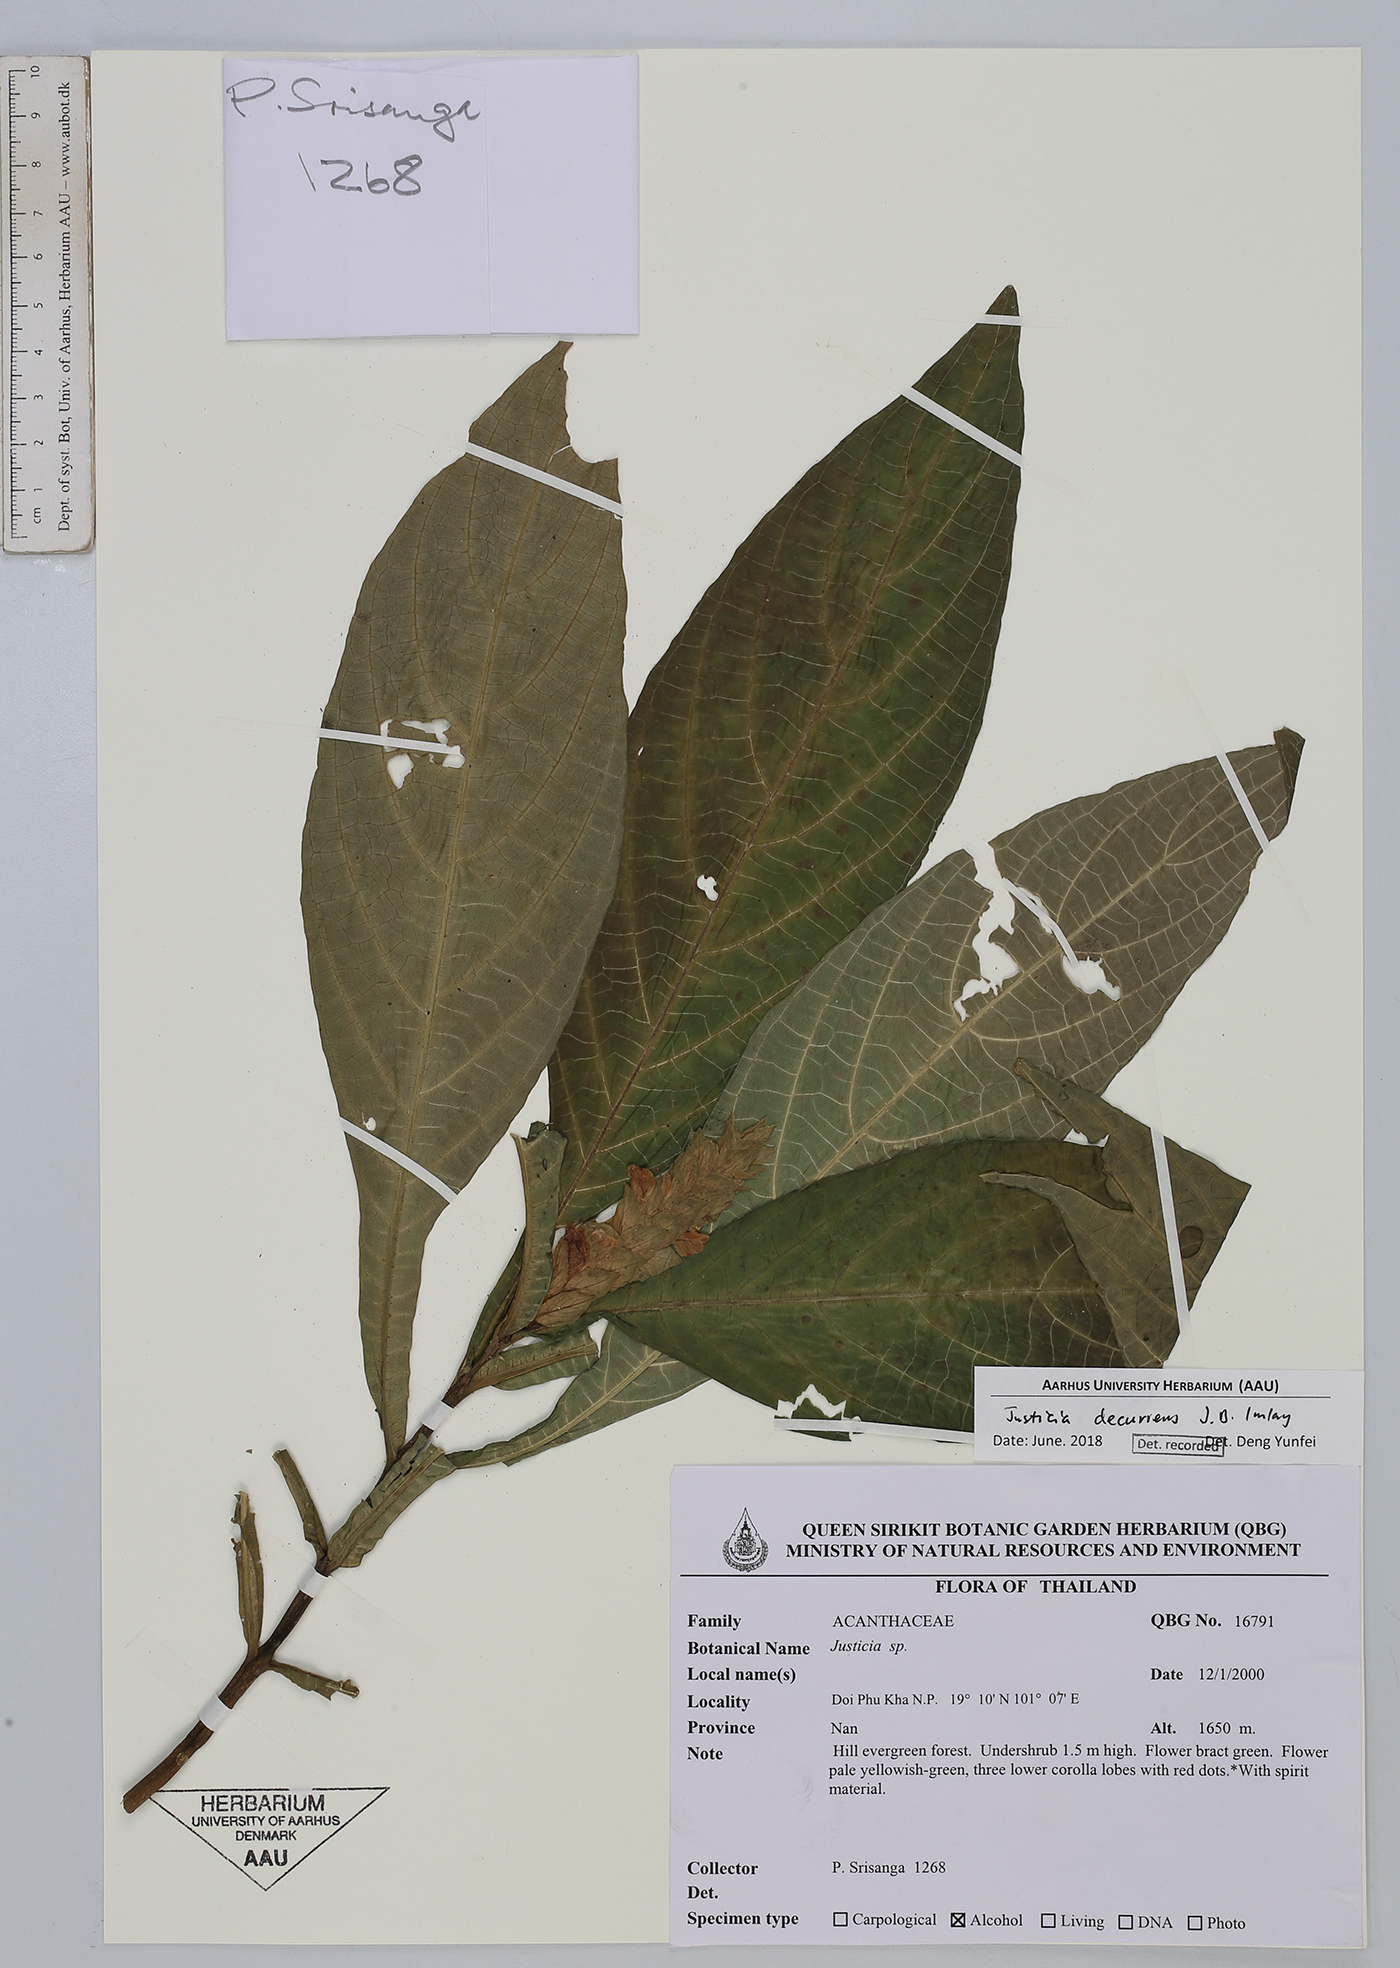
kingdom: Plantae
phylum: Tracheophyta
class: Magnoliopsida
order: Lamiales
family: Acanthaceae
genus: Justicia
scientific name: Justicia decurrens
